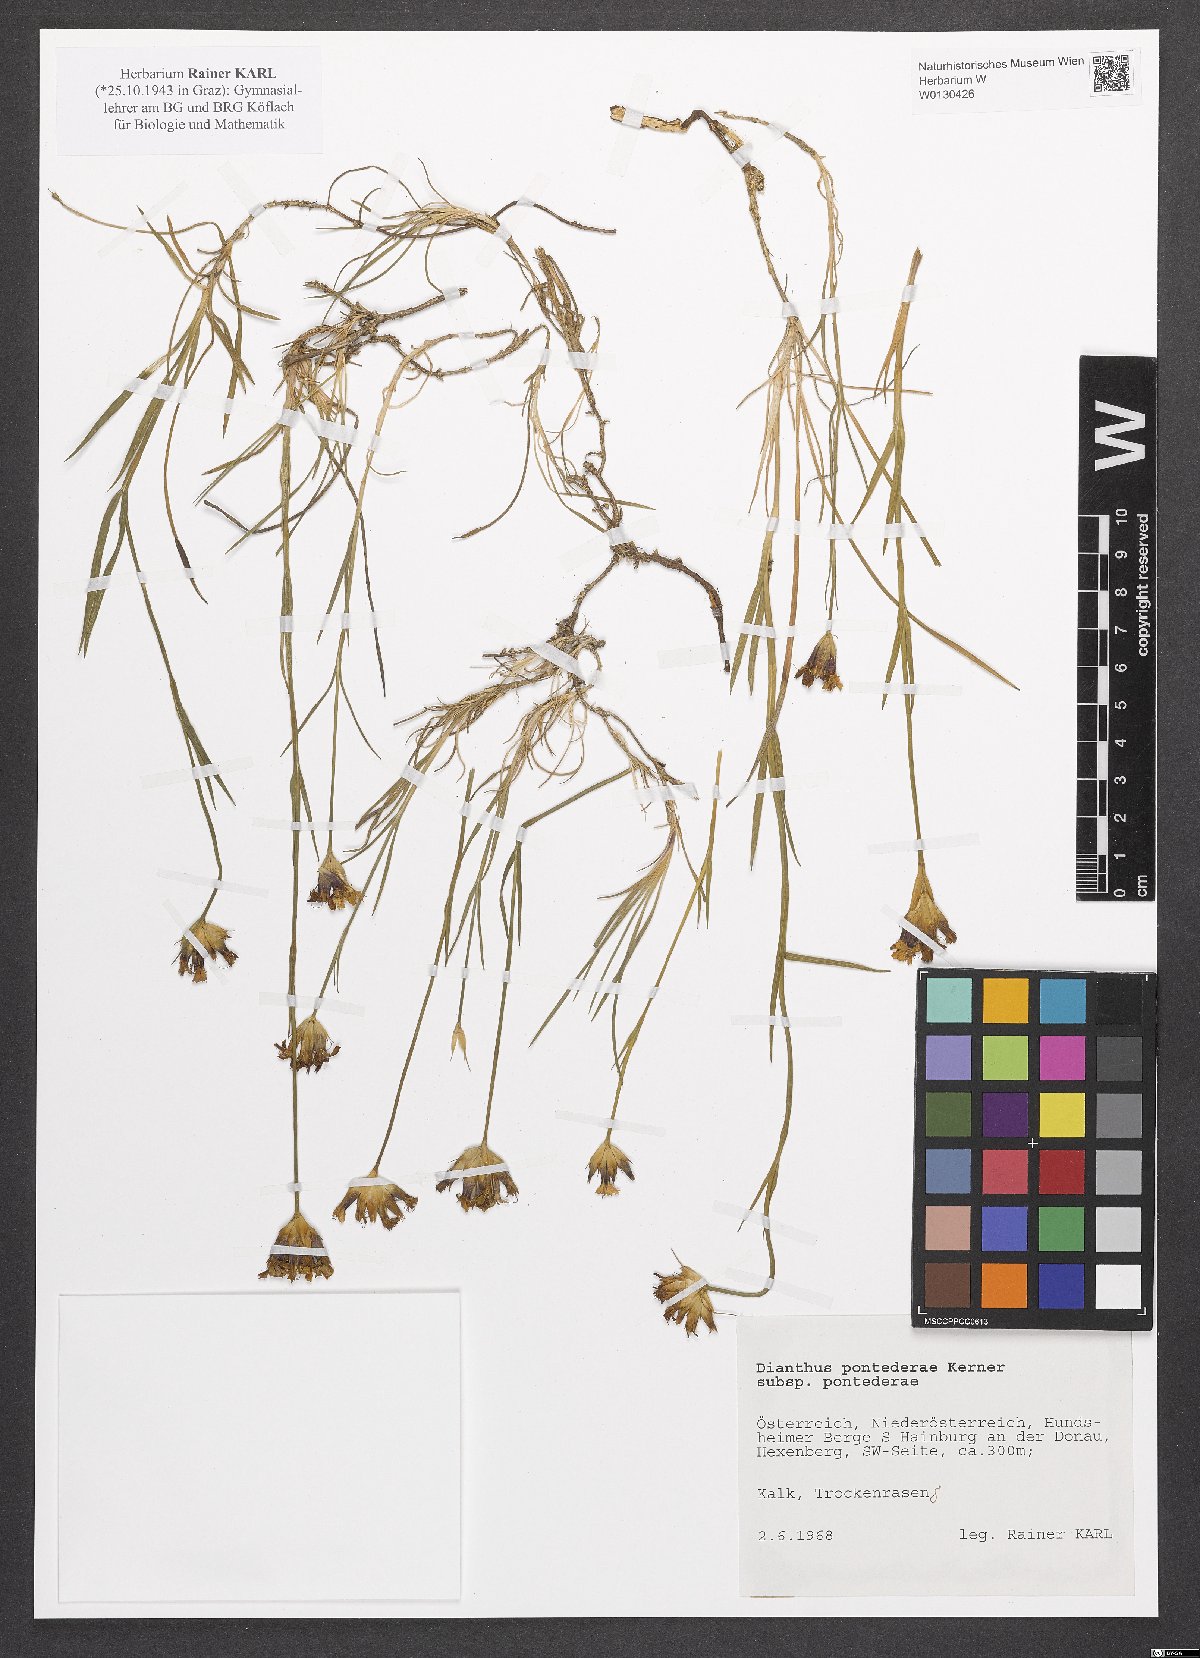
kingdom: Plantae
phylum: Tracheophyta
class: Magnoliopsida
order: Caryophyllales
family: Caryophyllaceae
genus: Dianthus
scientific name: Dianthus pontederae
